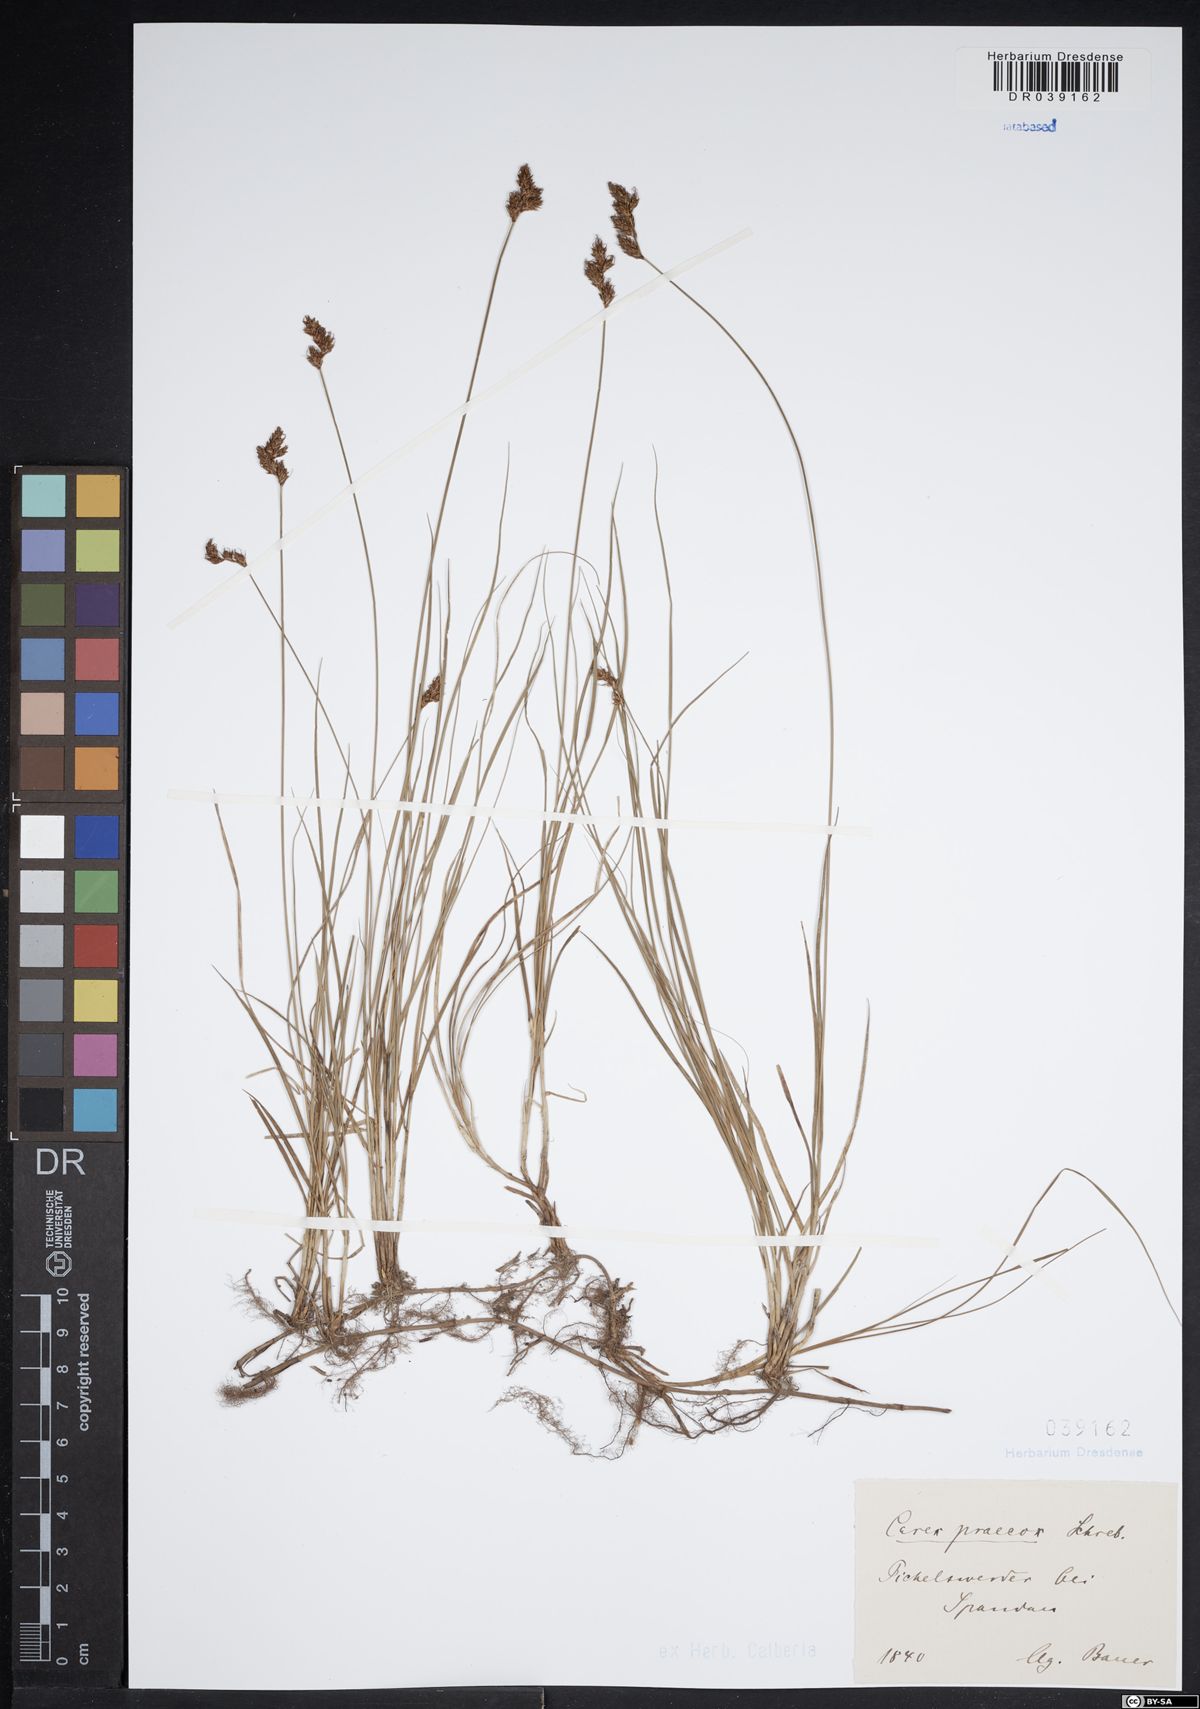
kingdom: Plantae
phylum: Tracheophyta
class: Liliopsida
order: Poales
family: Cyperaceae
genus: Carex
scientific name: Carex praecox
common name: Early sedge
